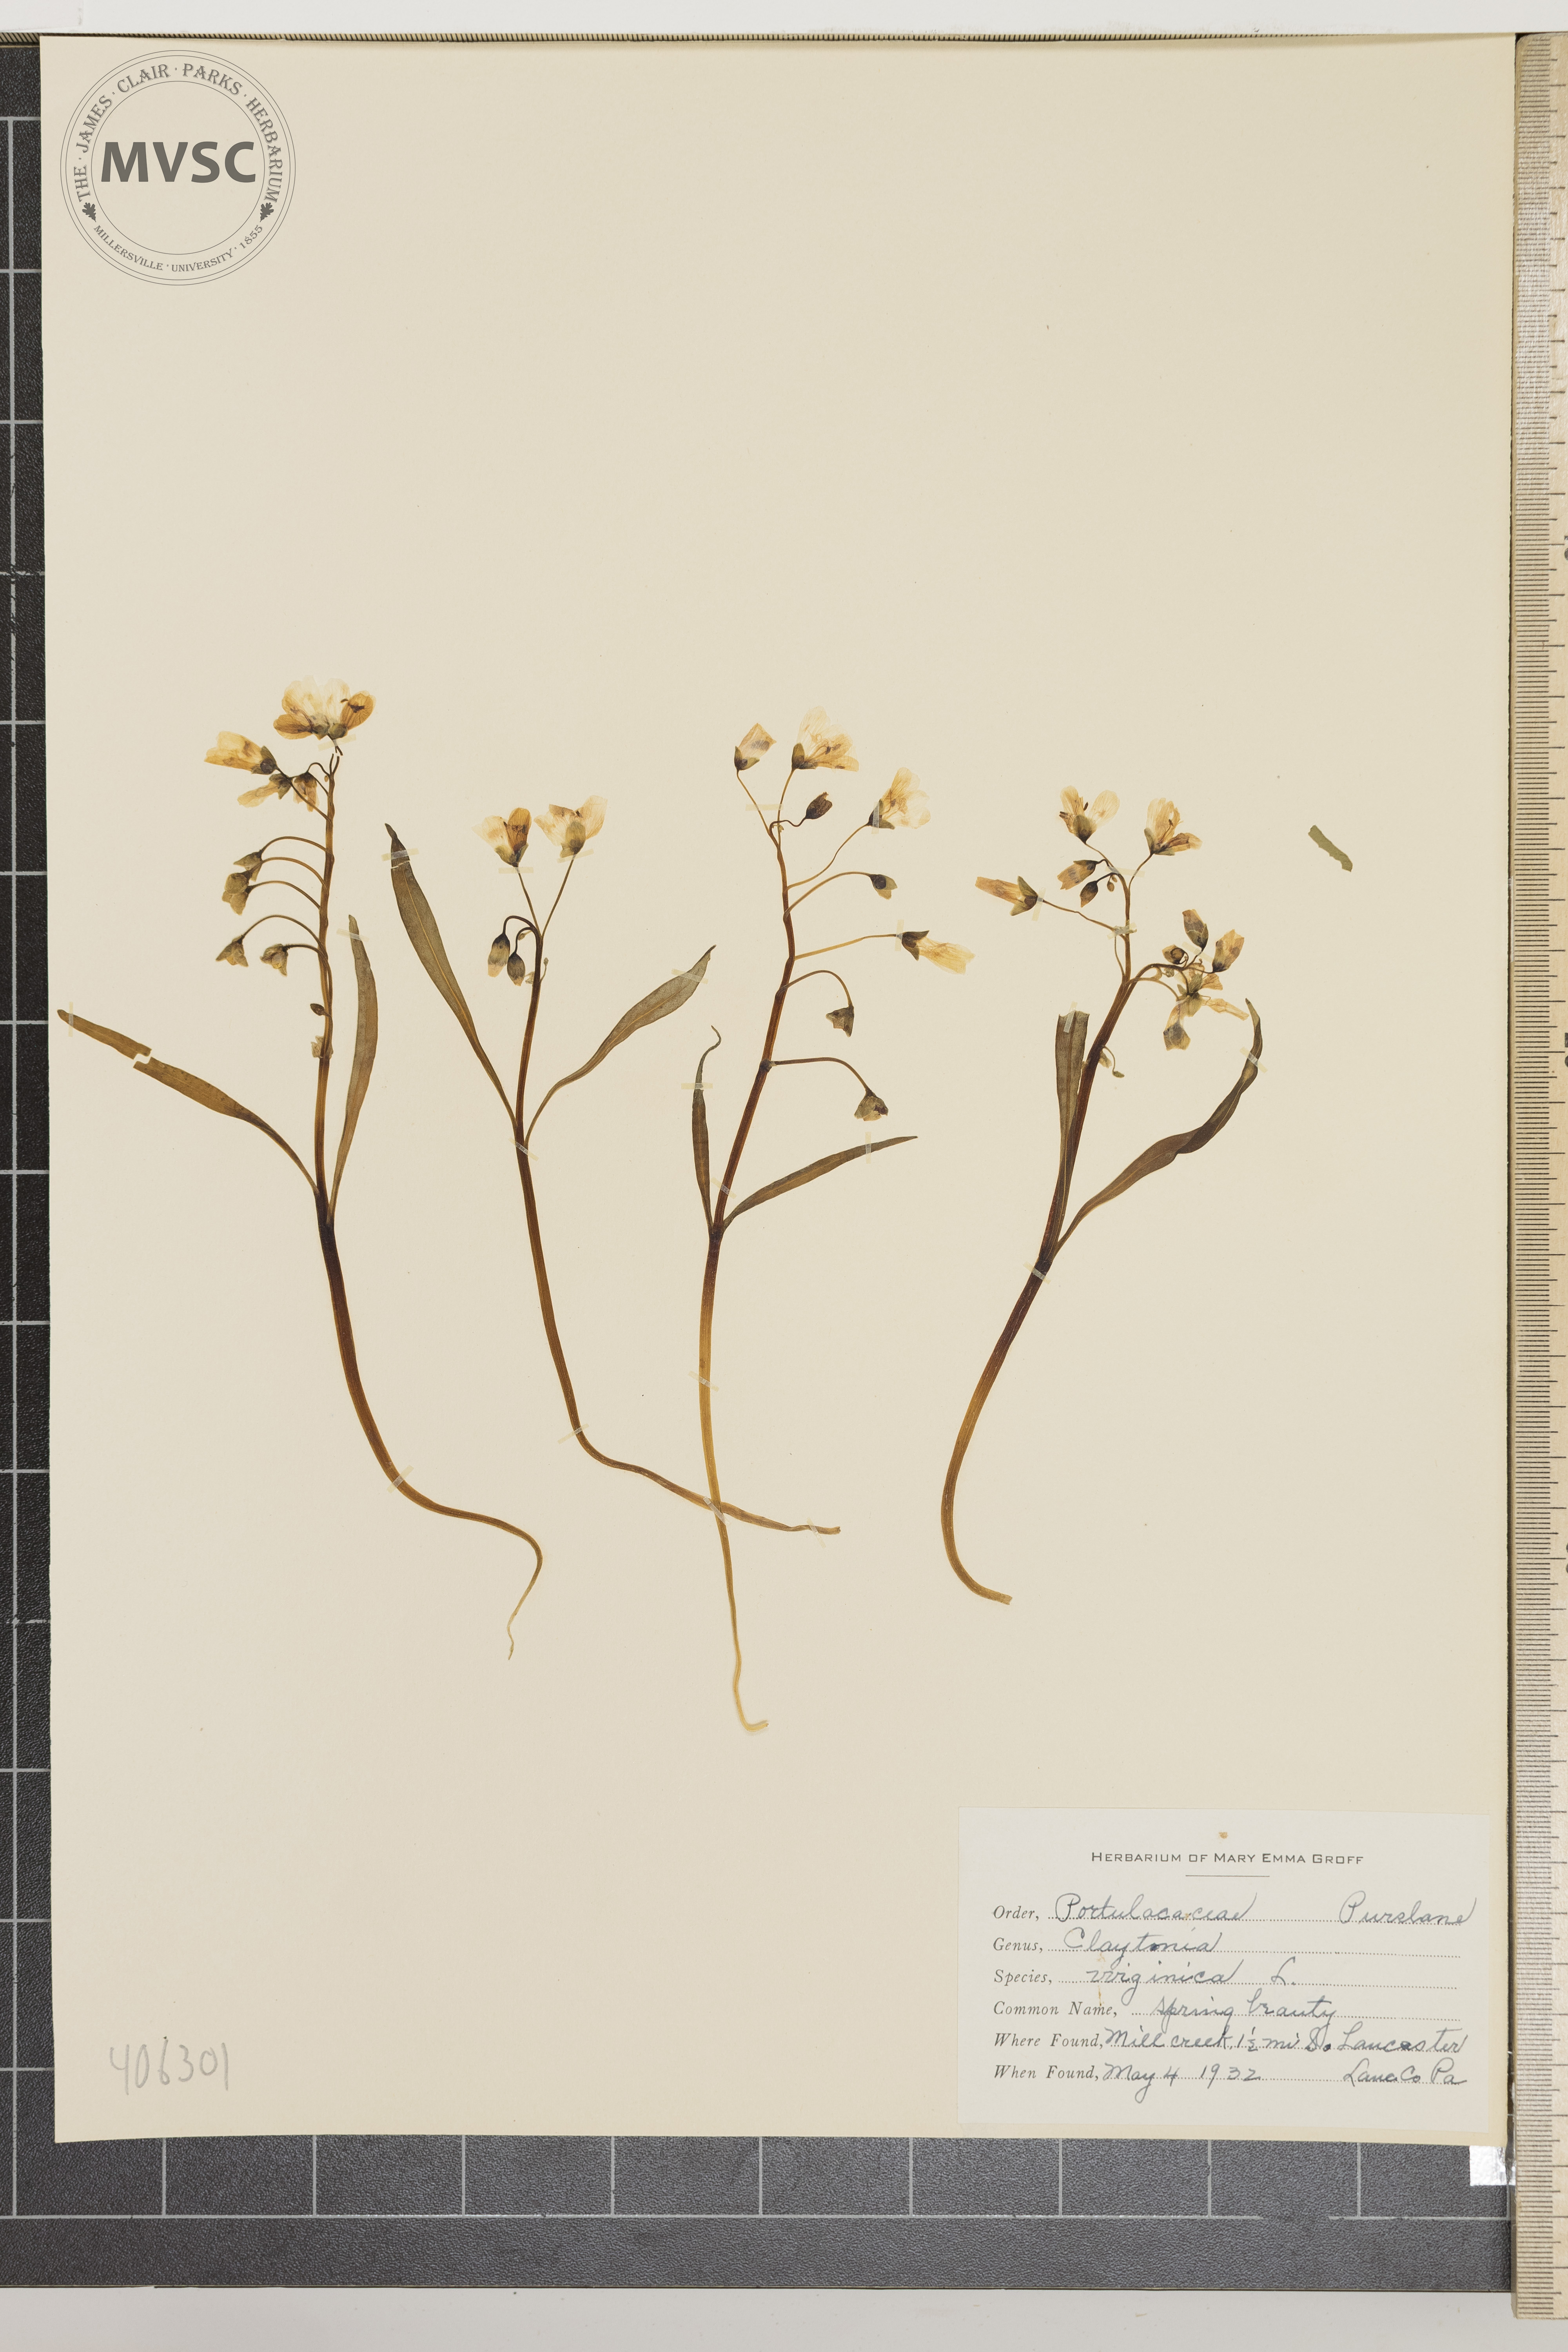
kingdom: Plantae
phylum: Tracheophyta
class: Magnoliopsida
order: Caryophyllales
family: Montiaceae
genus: Claytonia
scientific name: Claytonia virginica
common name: Spring beauty
